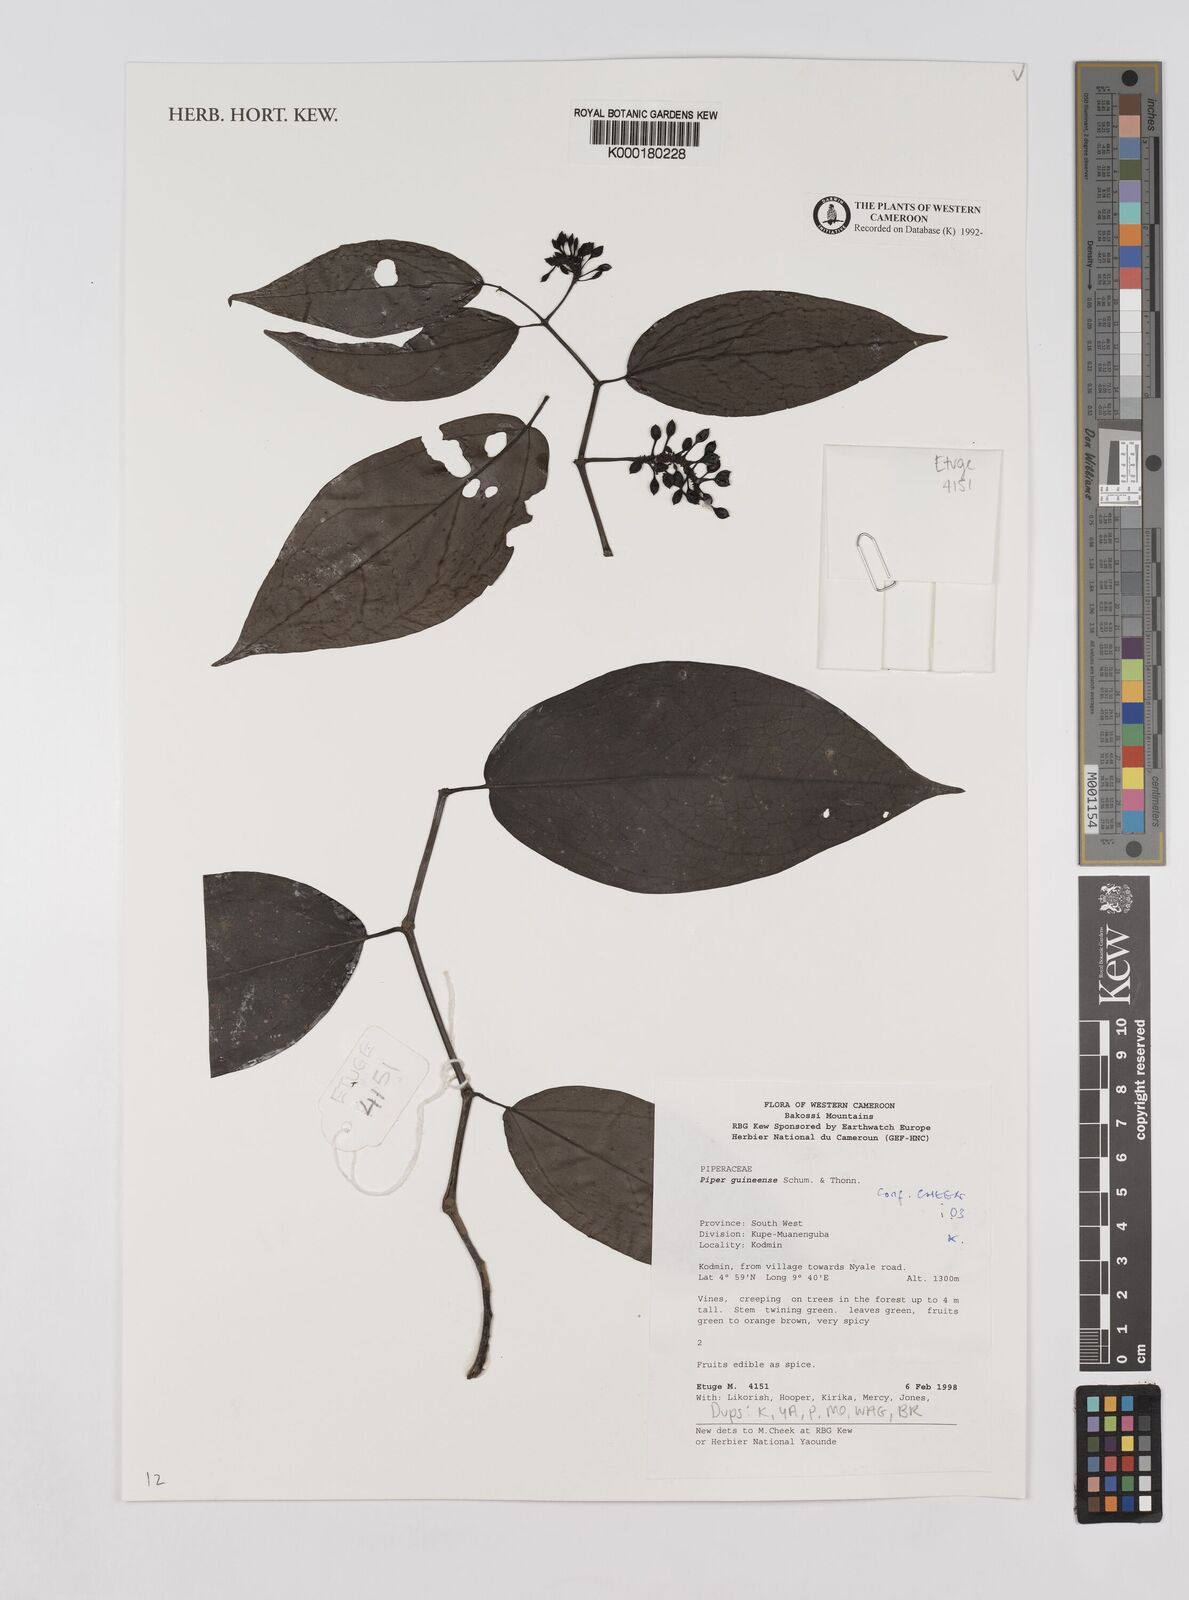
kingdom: Plantae
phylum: Tracheophyta
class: Magnoliopsida
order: Piperales
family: Piperaceae
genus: Piper
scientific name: Piper guineense
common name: Benin pepper
